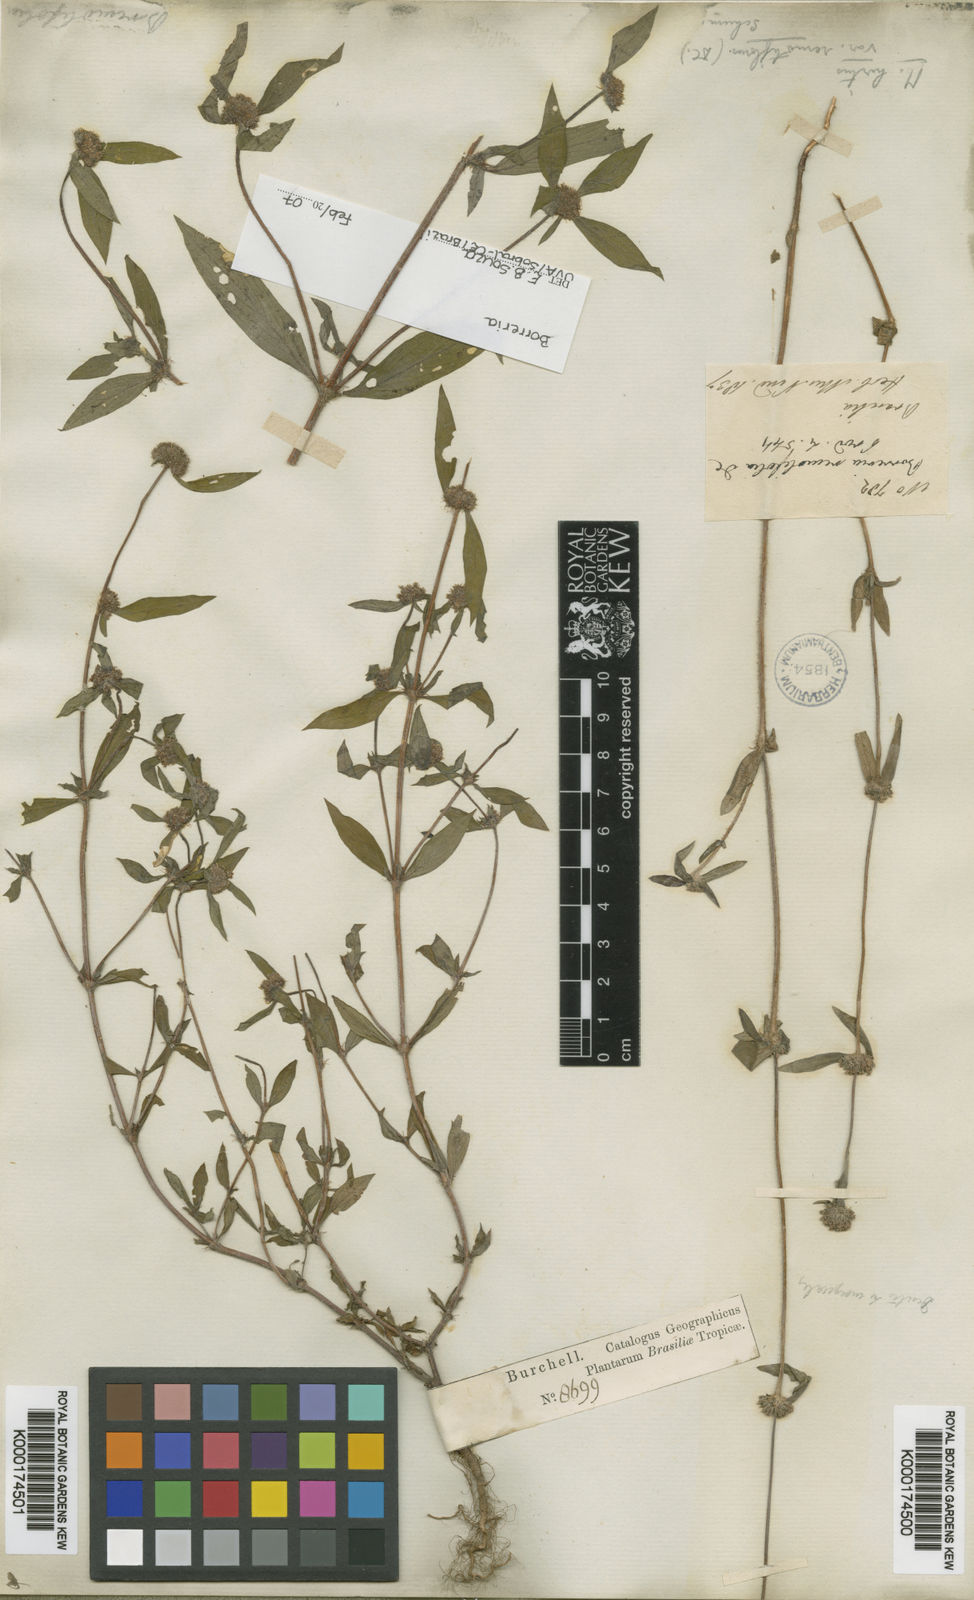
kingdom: Plantae
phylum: Tracheophyta
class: Magnoliopsida
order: Gentianales
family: Rubiaceae
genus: Mitracarpus
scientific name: Mitracarpus hirtus
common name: Tropical girdlepod
